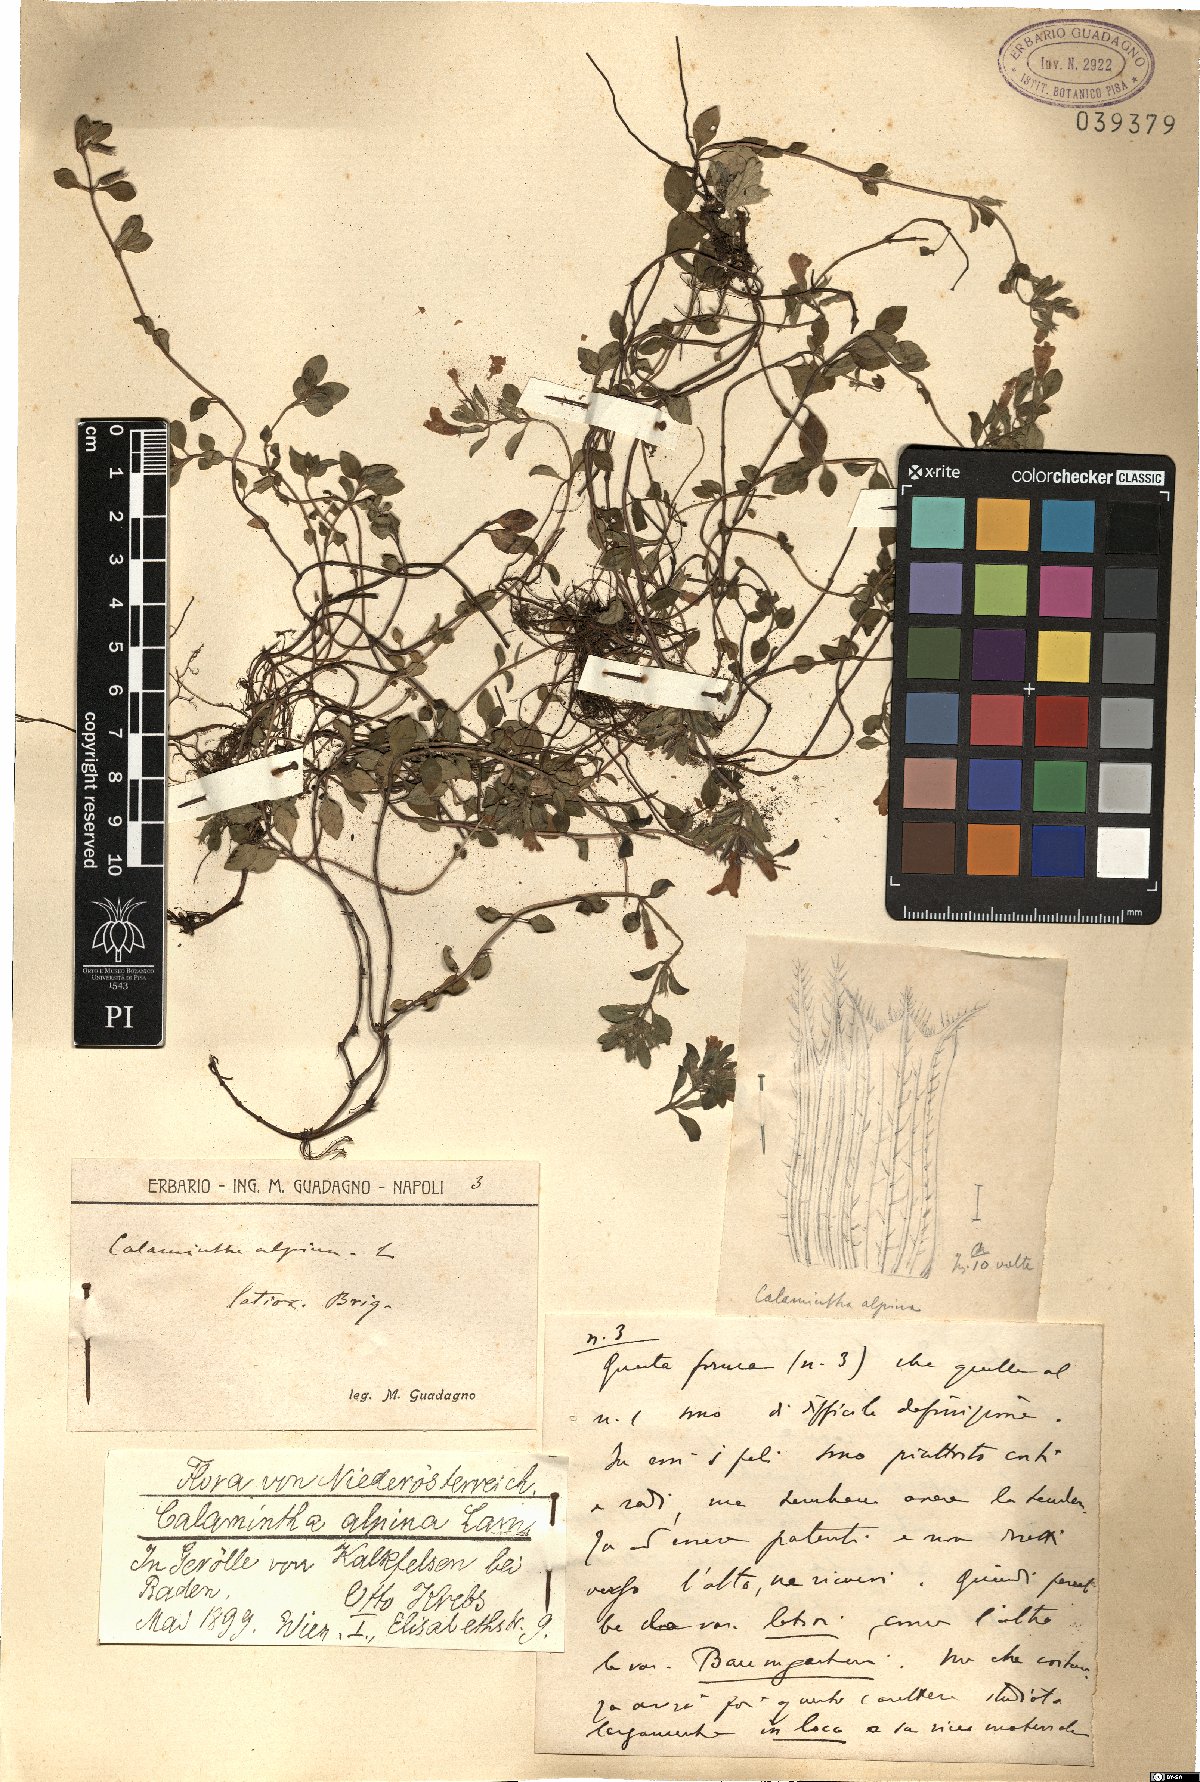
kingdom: Plantae
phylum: Tracheophyta
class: Magnoliopsida
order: Lamiales
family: Lamiaceae
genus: Clinopodium
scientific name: Clinopodium alpinum
